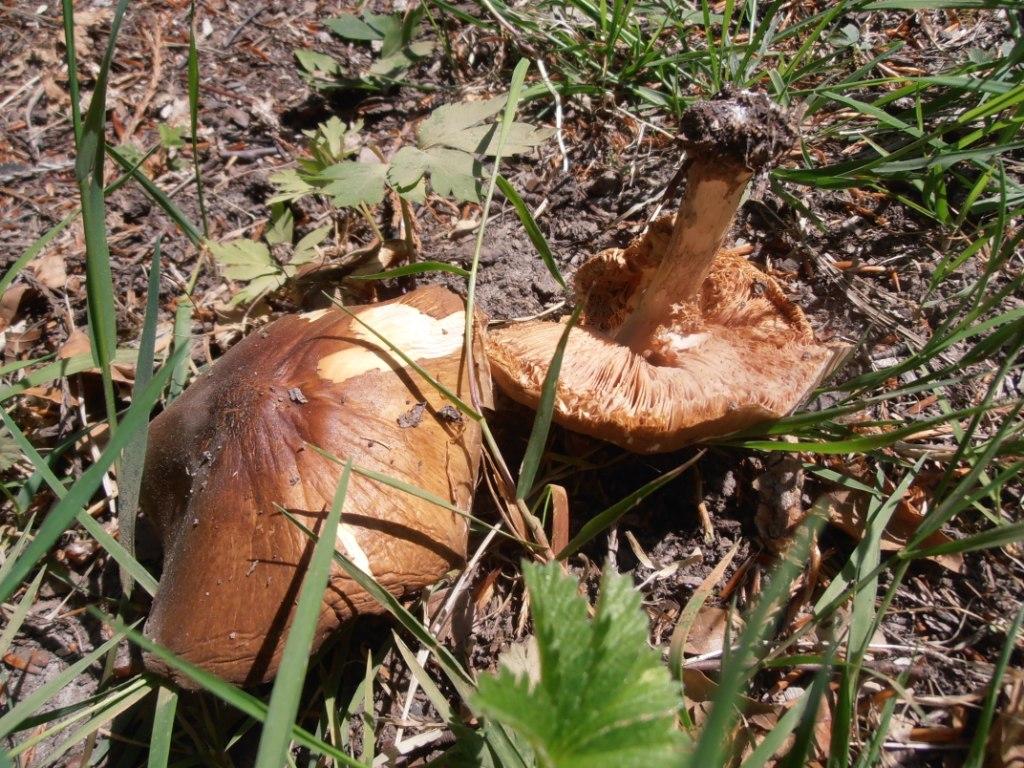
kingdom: Fungi
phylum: Basidiomycota
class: Agaricomycetes
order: Agaricales
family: Pluteaceae
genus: Pluteus
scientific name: Pluteus cervinus
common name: sodfarvet skærmhat
